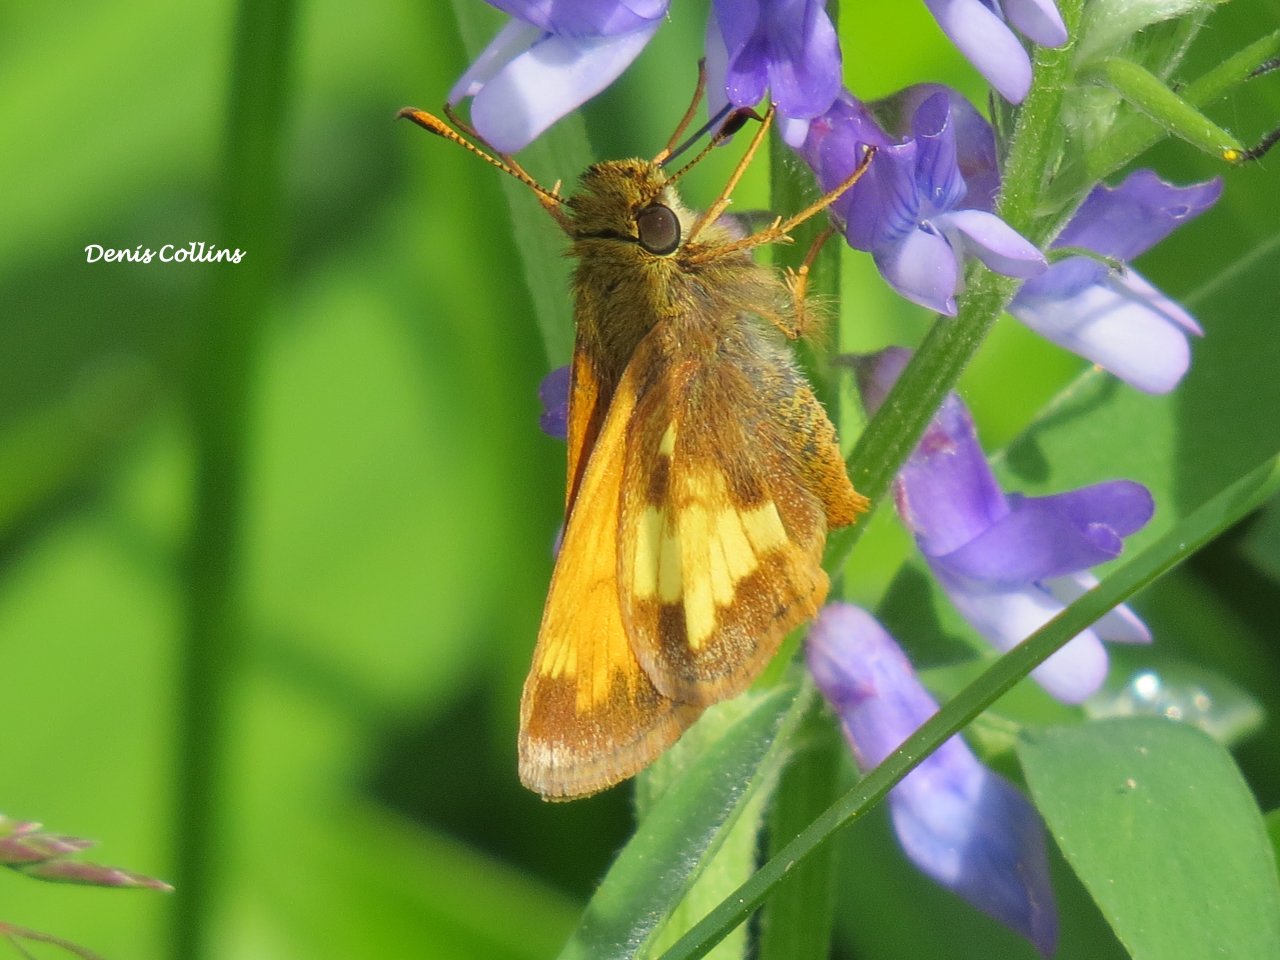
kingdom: Animalia
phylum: Arthropoda
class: Insecta
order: Lepidoptera
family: Hesperiidae
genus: Lon
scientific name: Lon hobomok
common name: Hobomok Skipper
